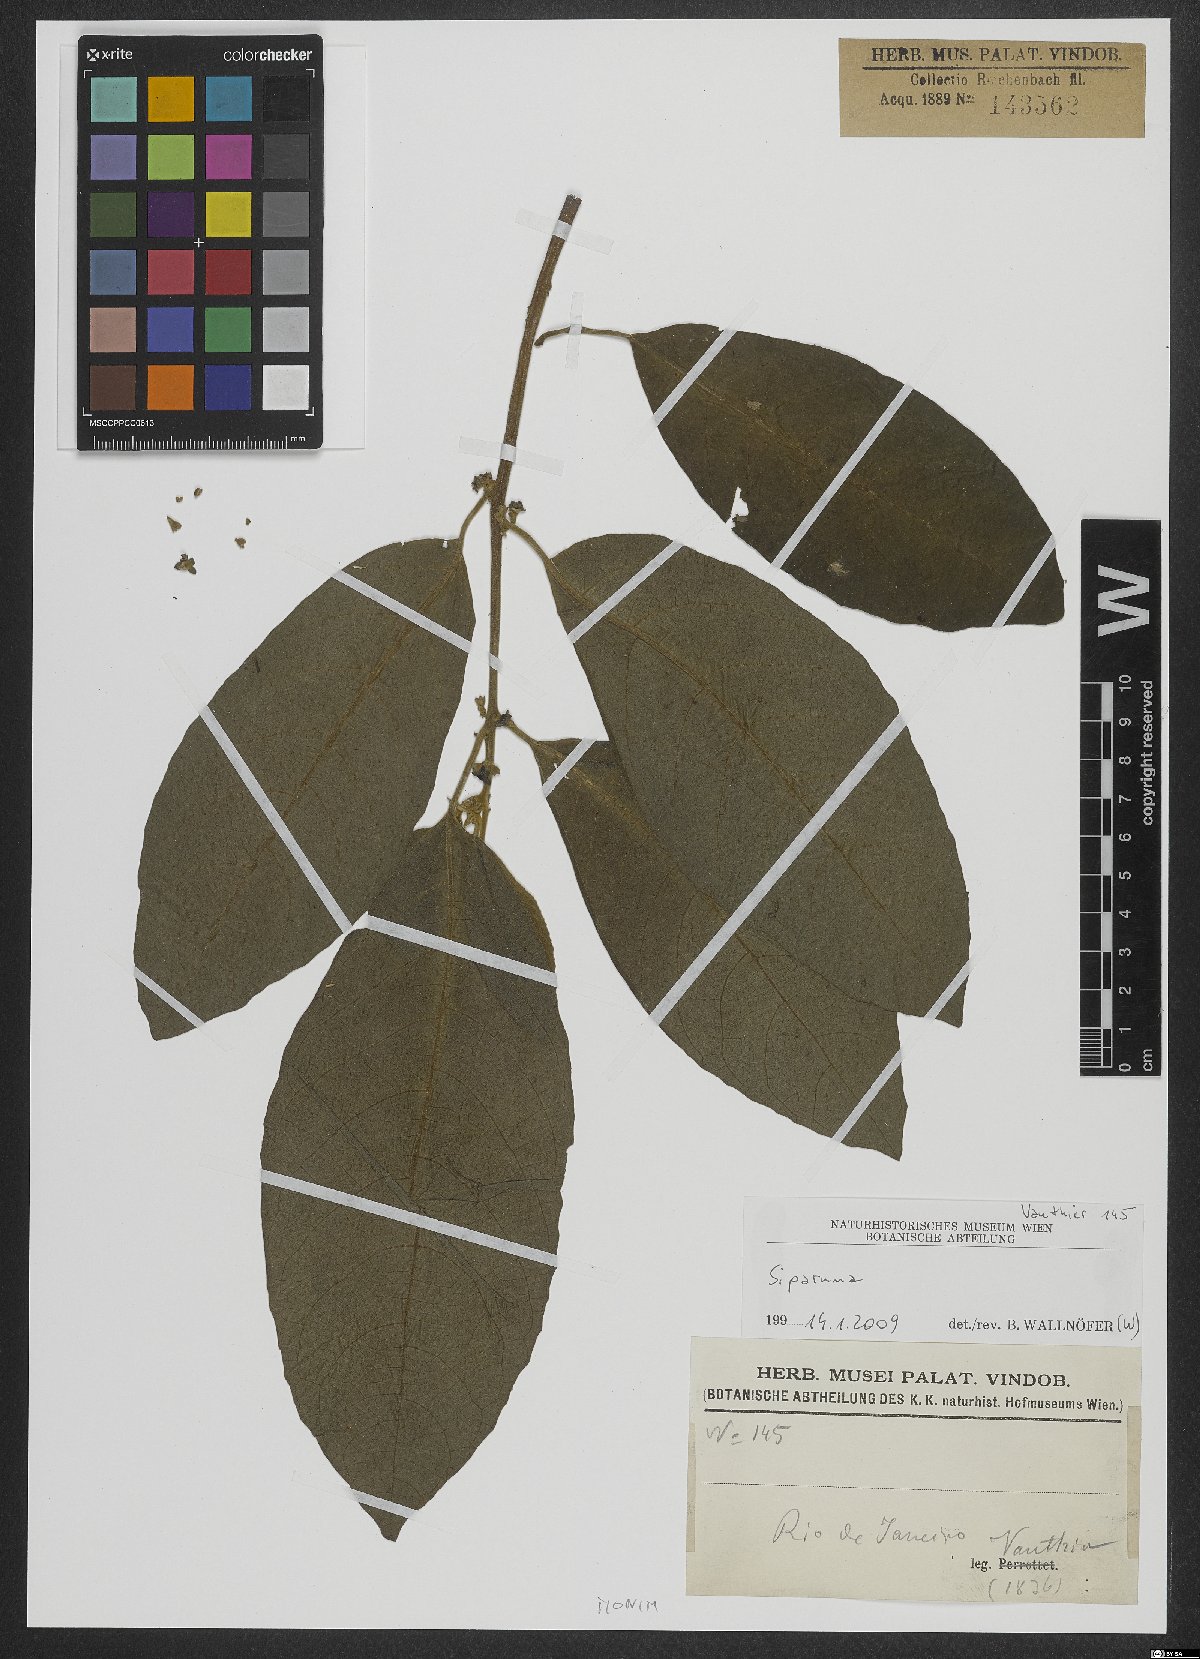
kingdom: Plantae
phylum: Tracheophyta
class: Magnoliopsida
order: Laurales
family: Siparunaceae
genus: Siparuna
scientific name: Siparuna
